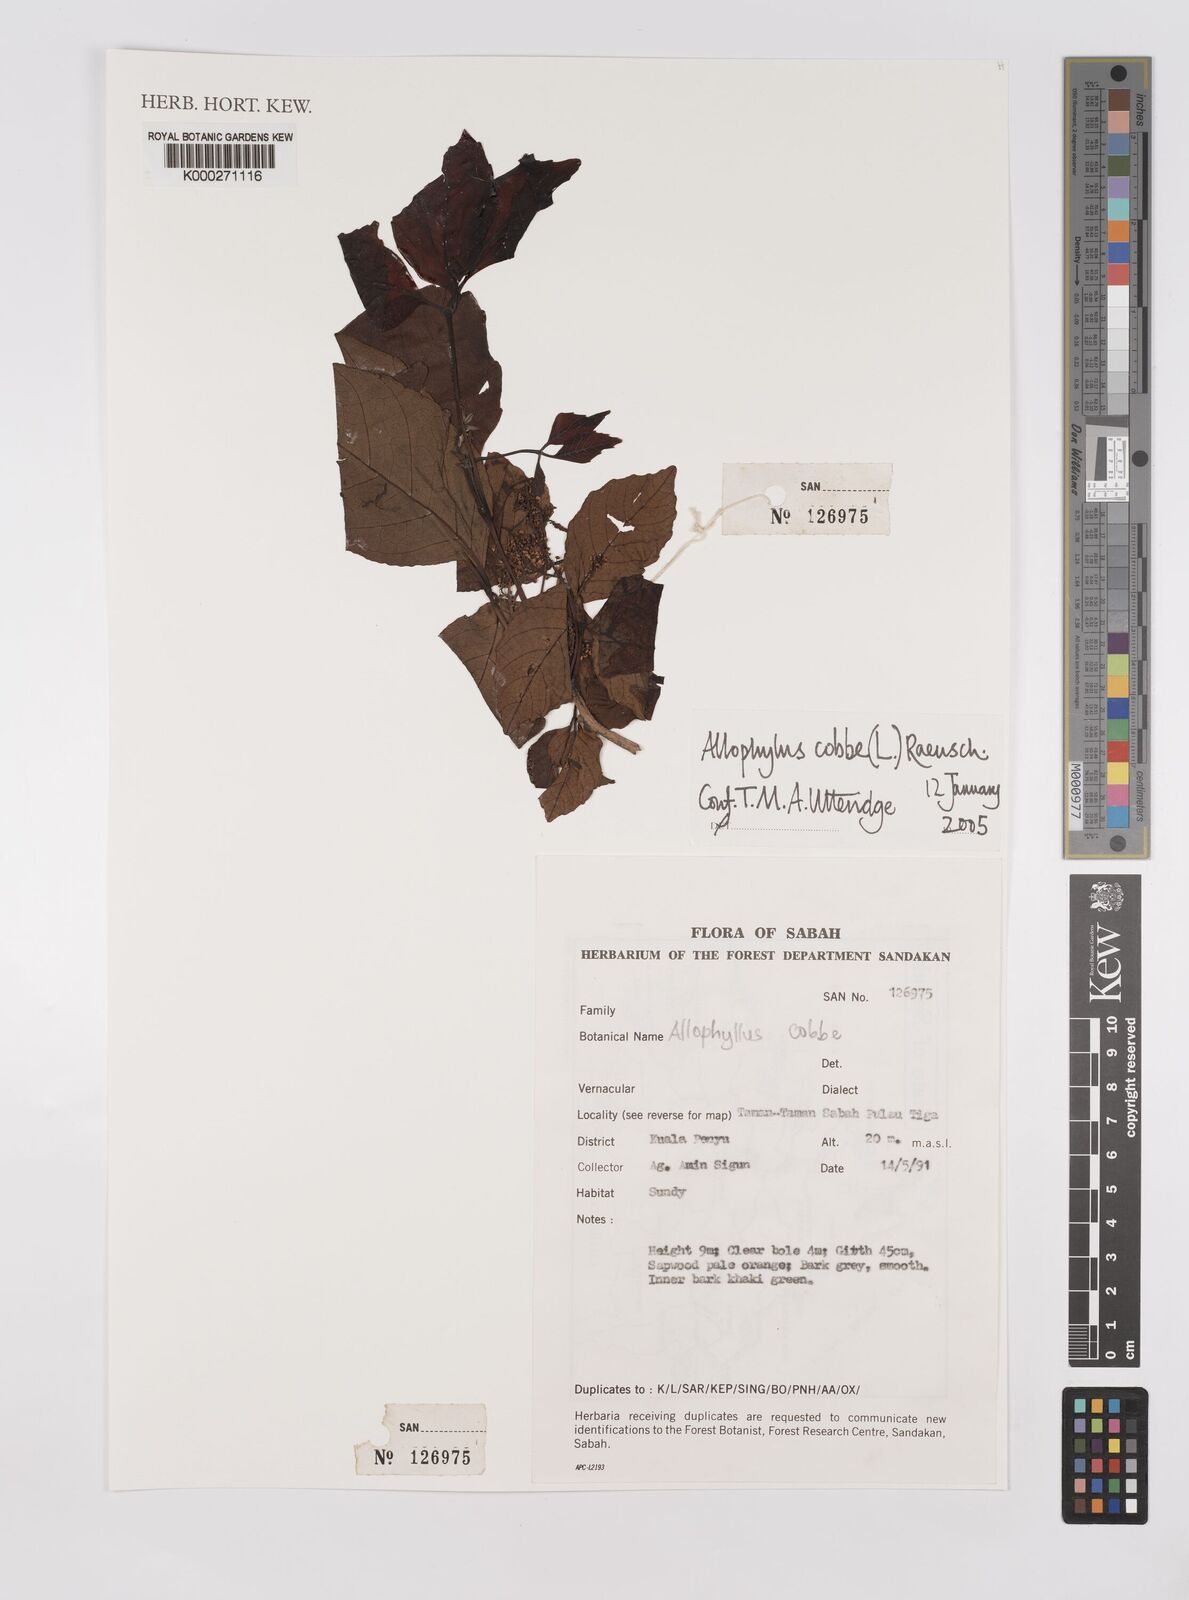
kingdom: Plantae
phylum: Tracheophyta
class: Magnoliopsida
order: Sapindales
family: Sapindaceae
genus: Allophylus
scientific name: Allophylus
